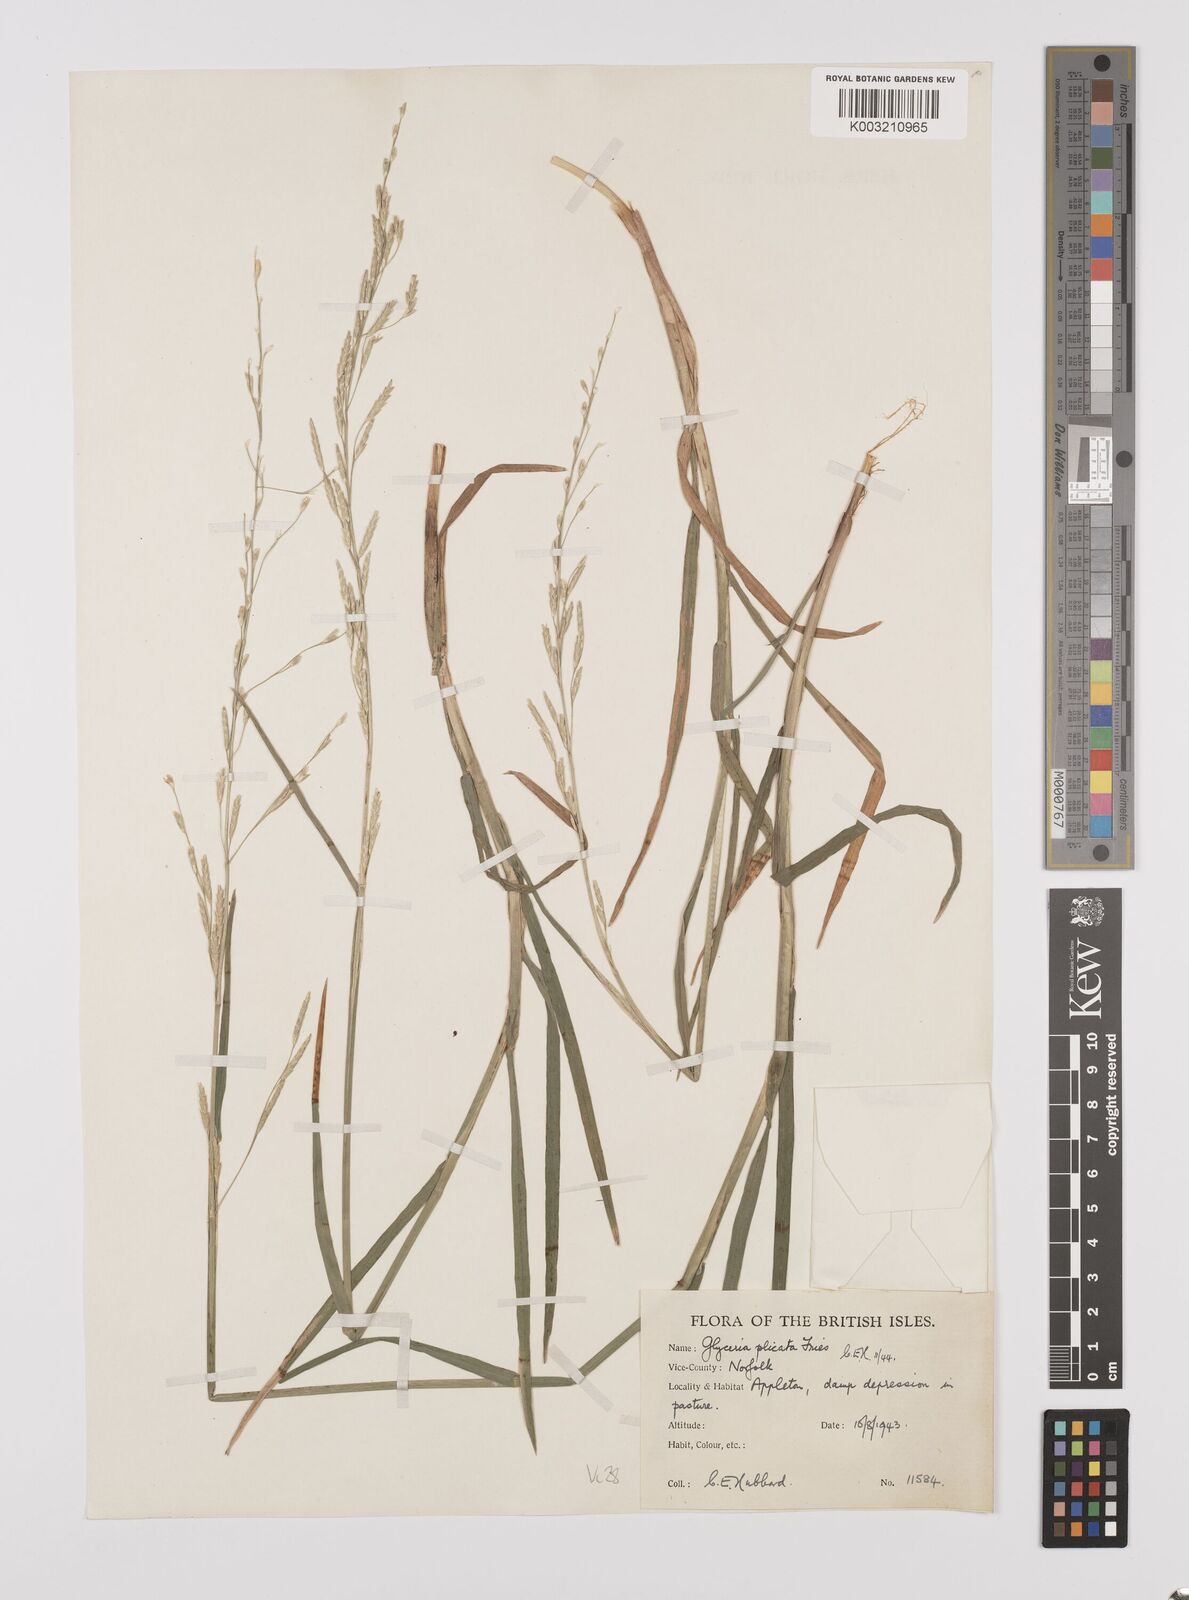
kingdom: Plantae
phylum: Tracheophyta
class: Liliopsida
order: Poales
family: Poaceae
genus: Glyceria
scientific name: Glyceria notata
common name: Plicate sweet-grass
